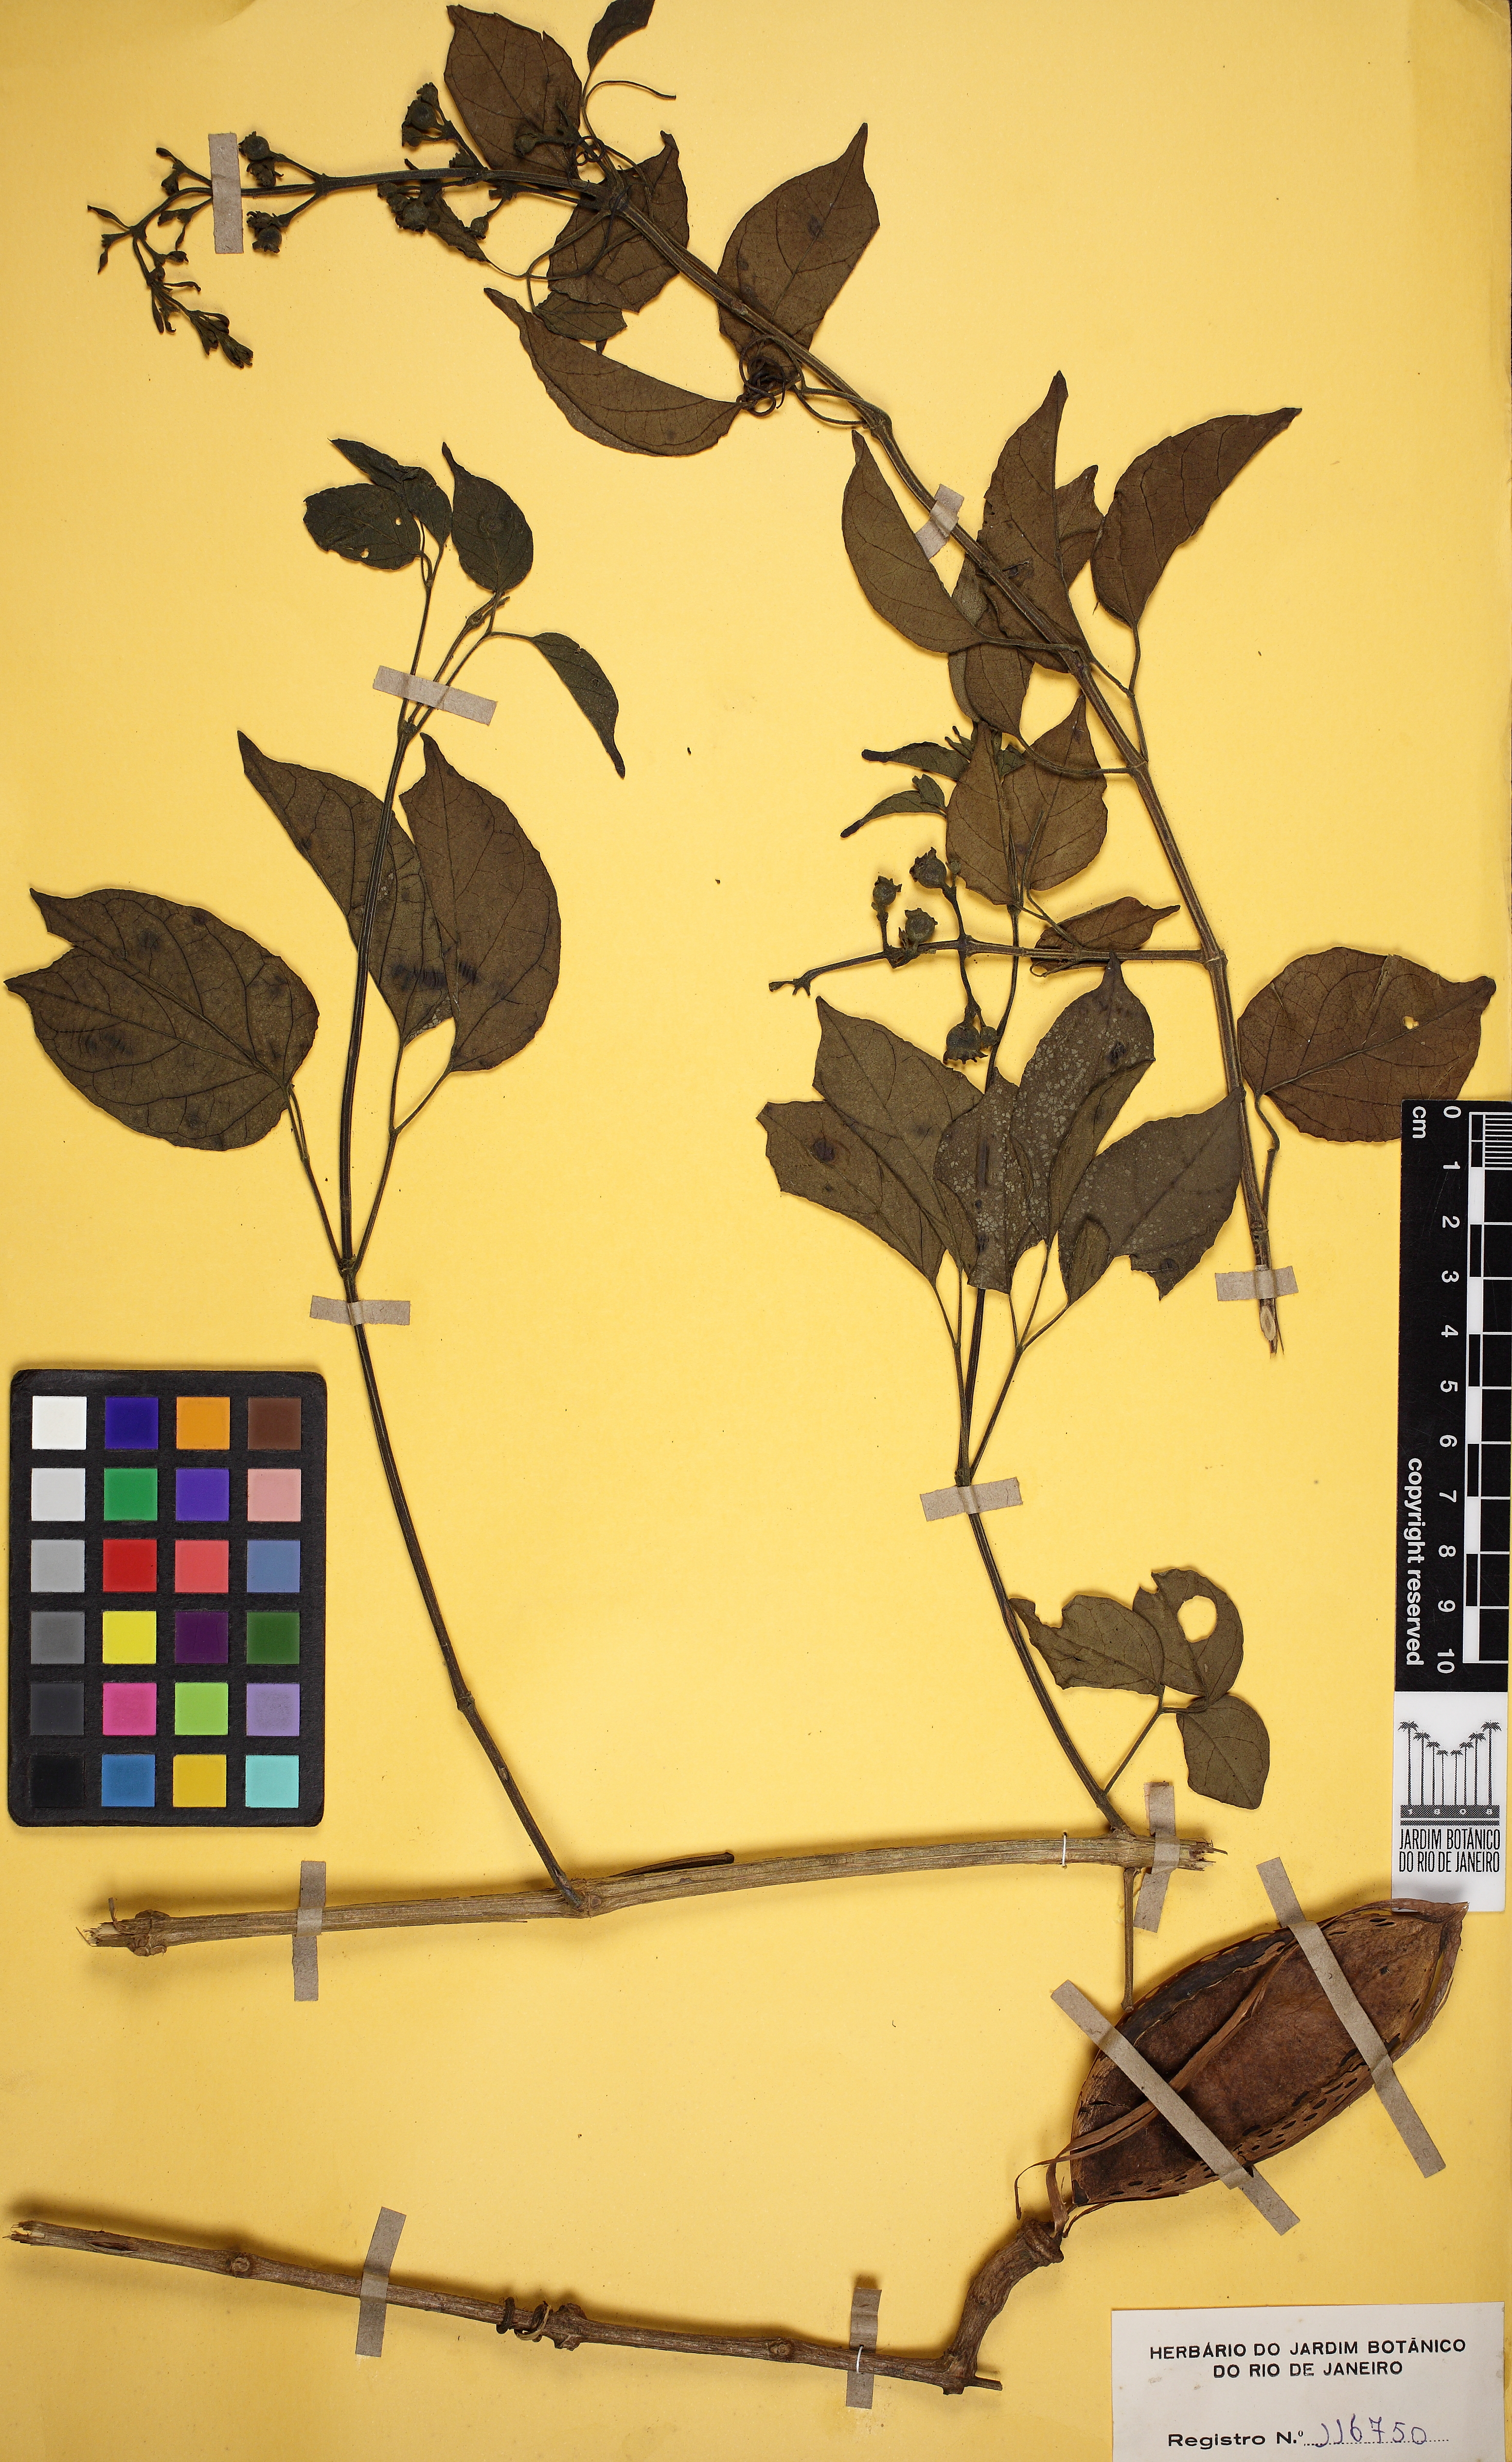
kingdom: Plantae
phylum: Tracheophyta
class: Magnoliopsida
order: Lamiales
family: Bignoniaceae
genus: Amphilophium
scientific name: Amphilophium paniculatum
